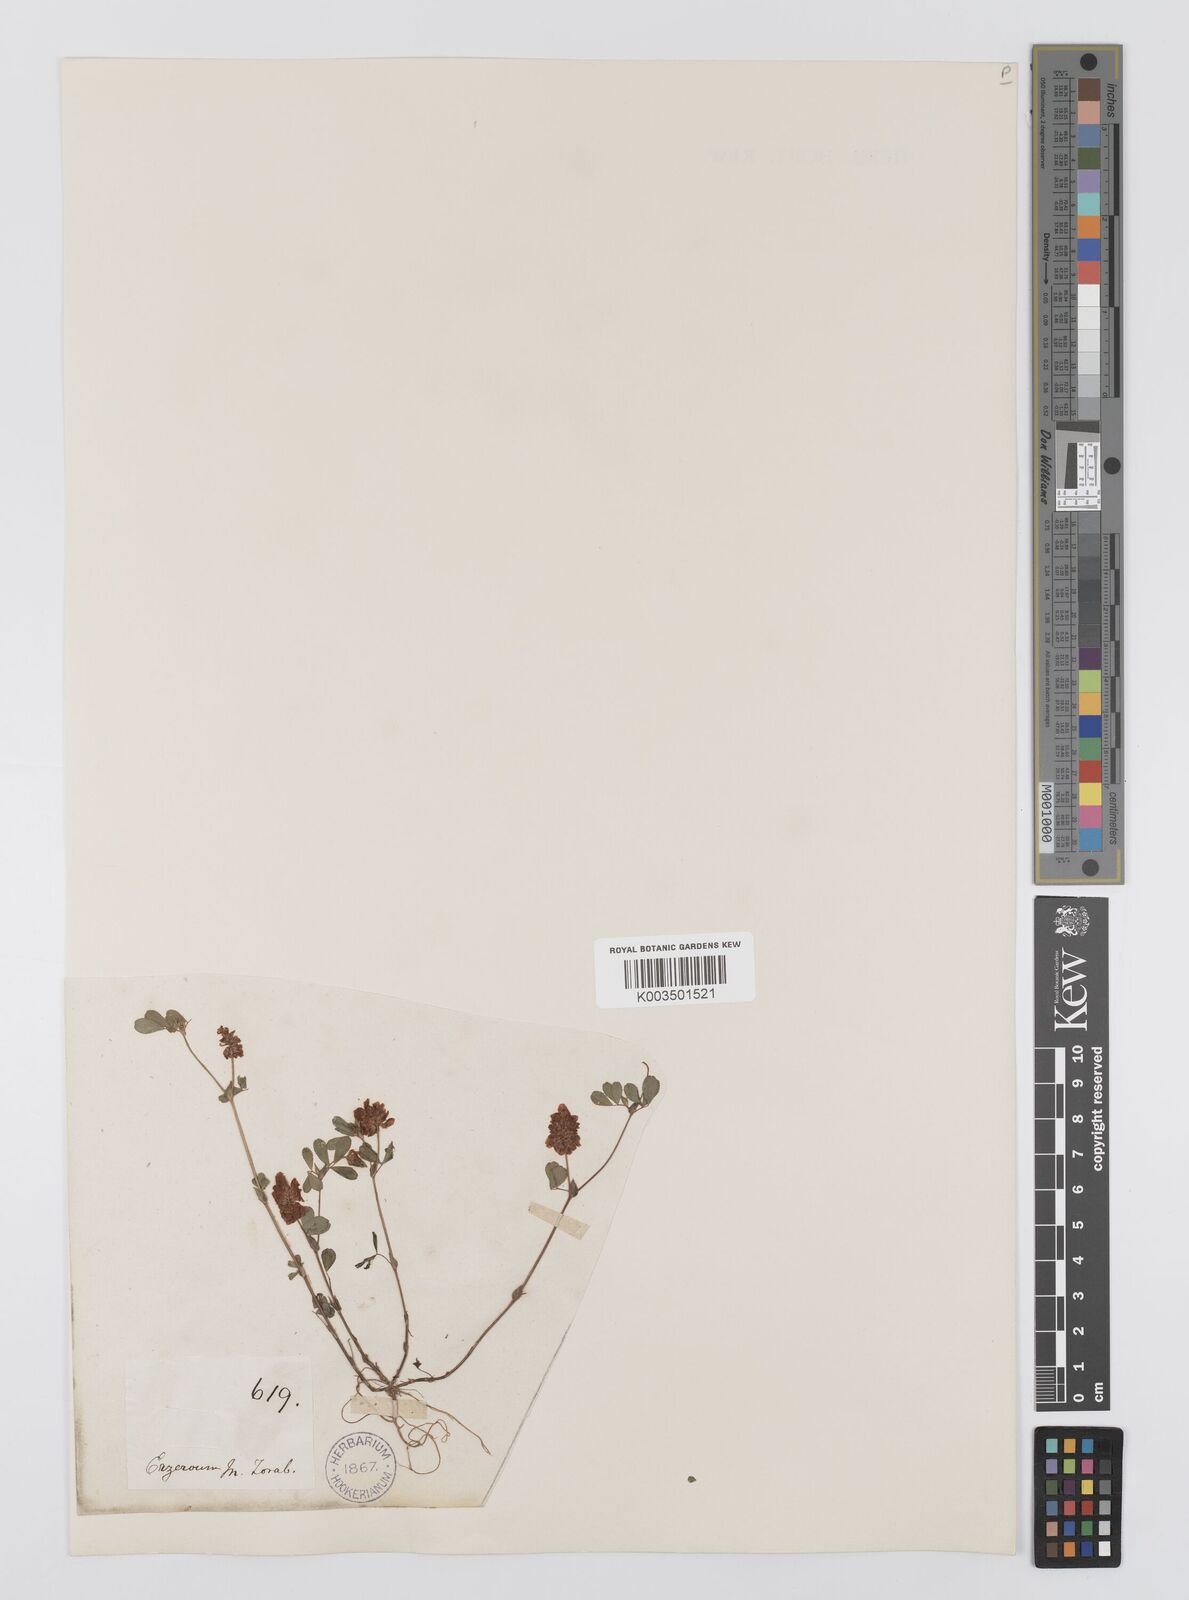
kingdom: Plantae
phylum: Tracheophyta
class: Magnoliopsida
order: Fabales
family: Fabaceae
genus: Trifolium
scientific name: Trifolium campestre
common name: Field clover
